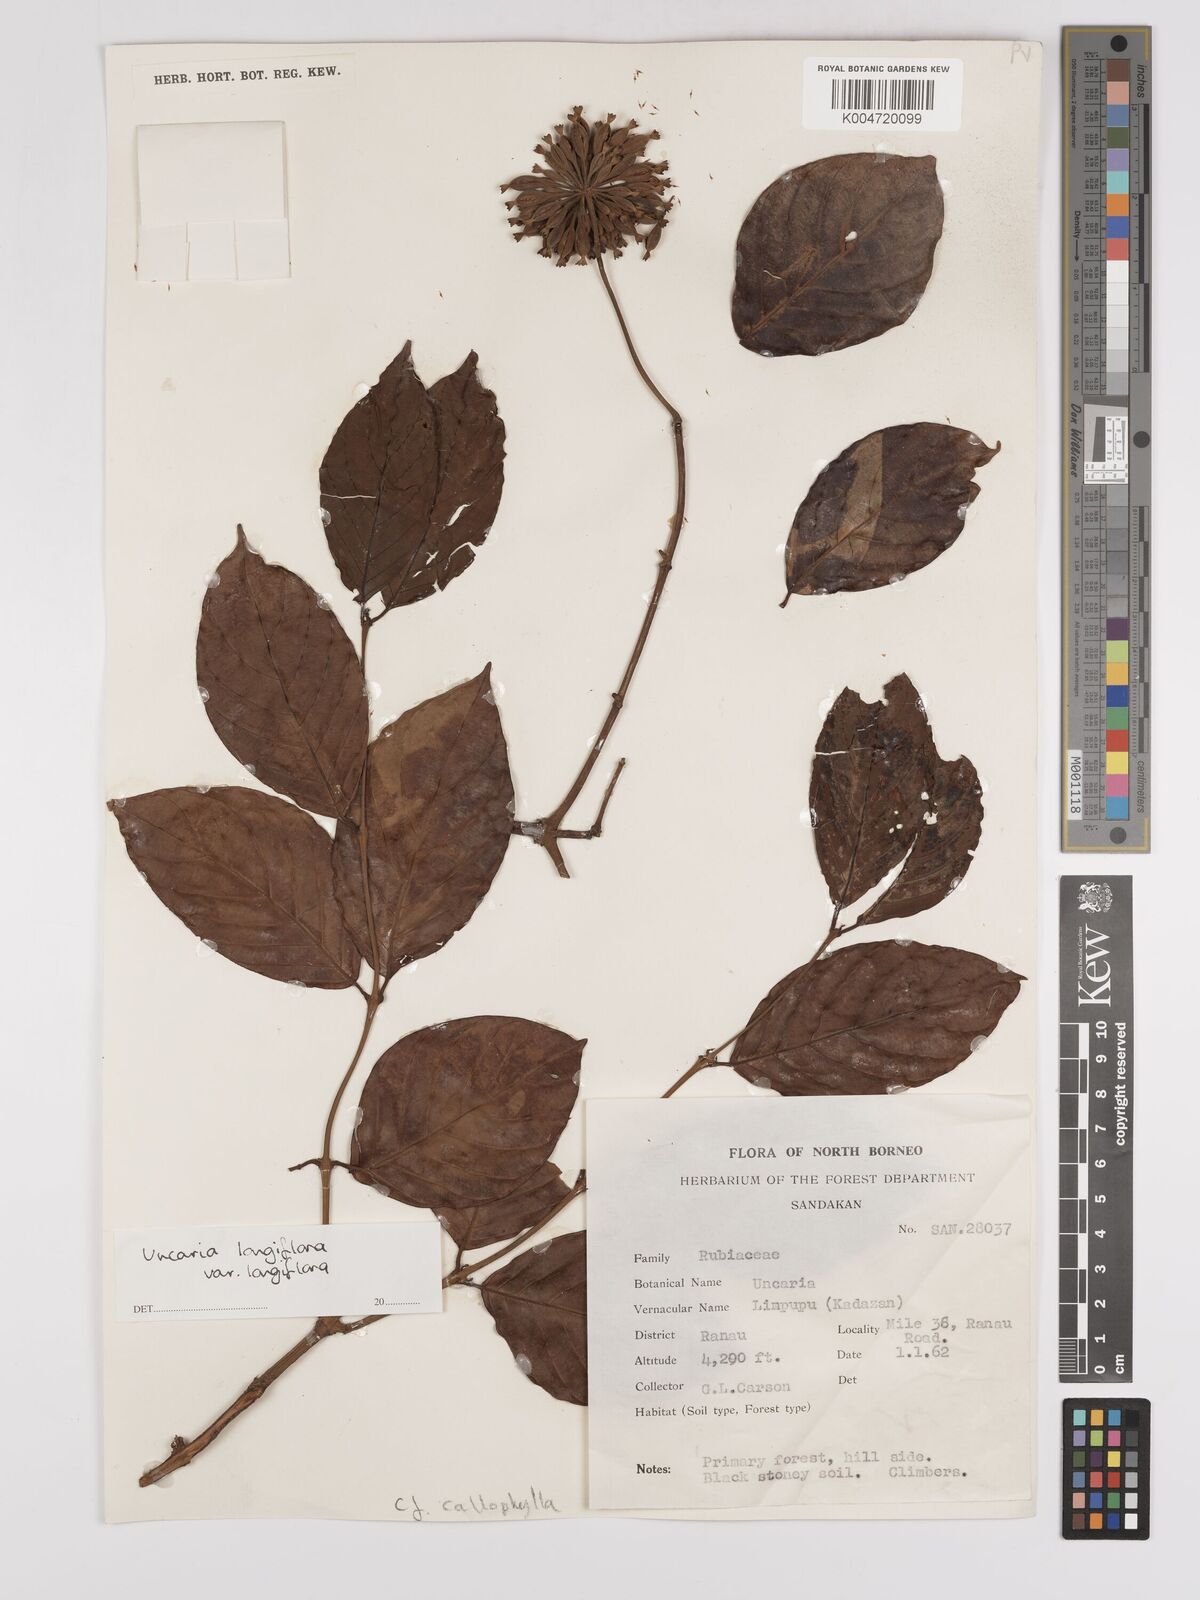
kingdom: Plantae
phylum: Tracheophyta
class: Magnoliopsida
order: Gentianales
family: Rubiaceae
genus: Uncaria
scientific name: Uncaria
